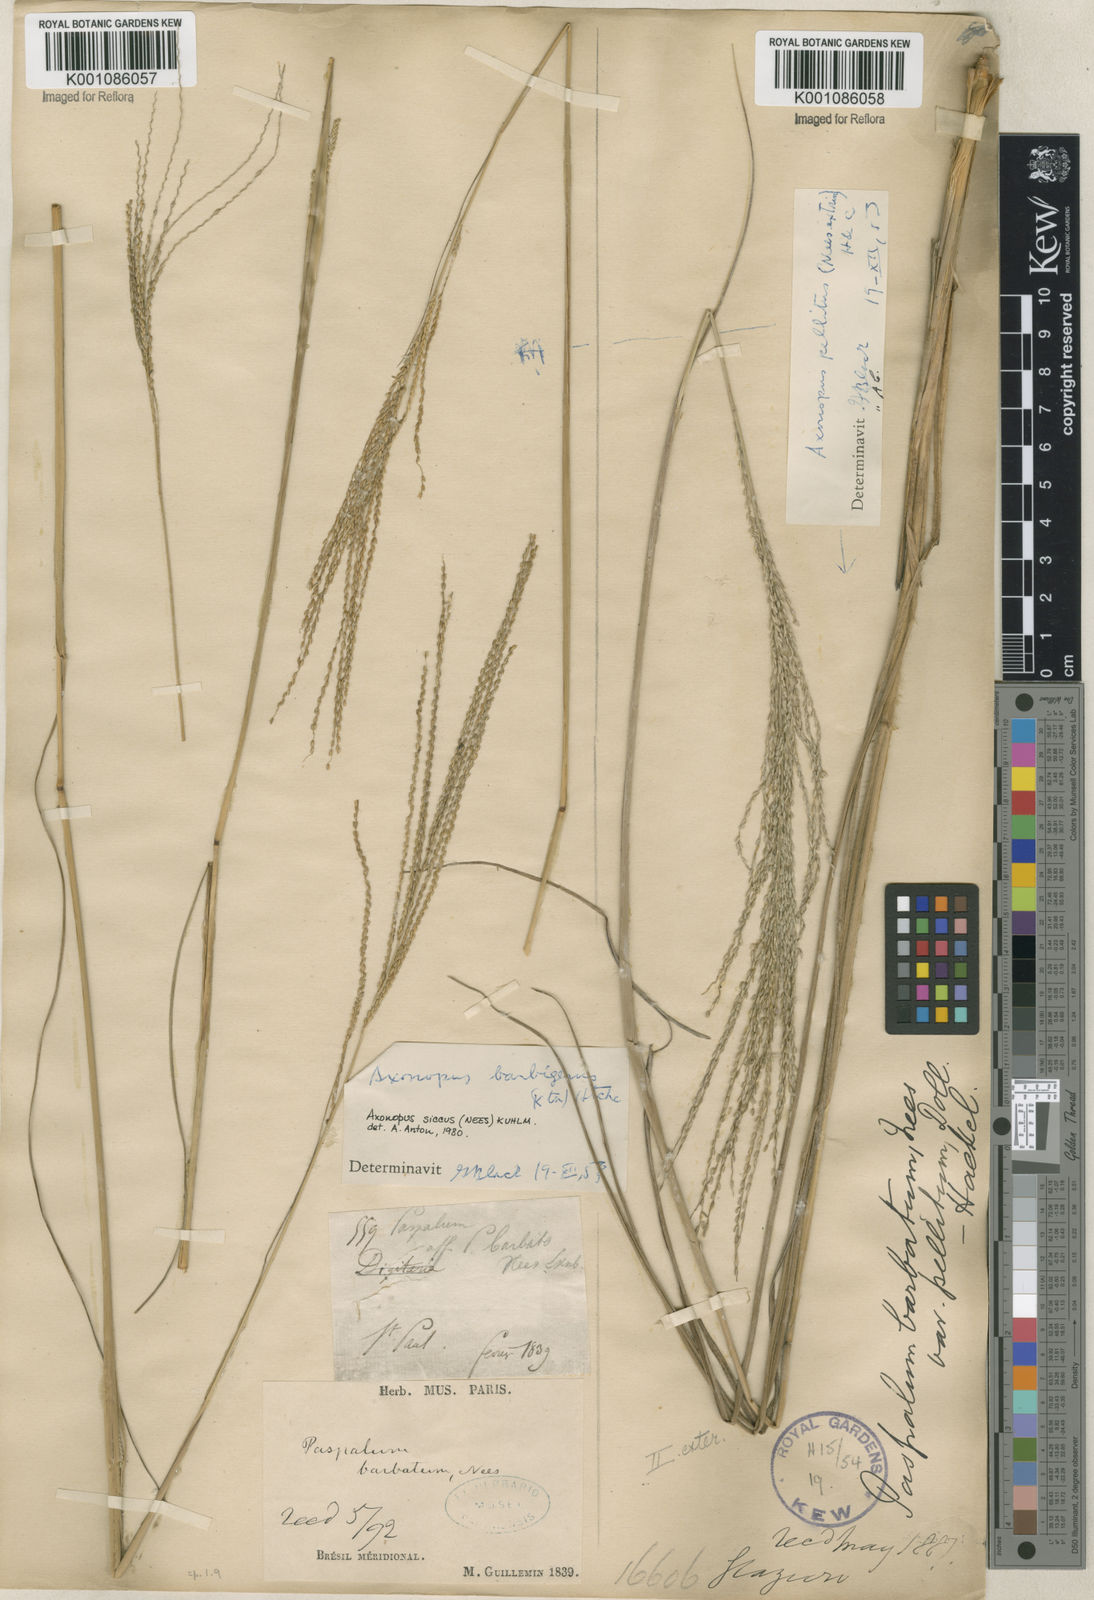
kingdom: Plantae
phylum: Tracheophyta
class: Liliopsida
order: Poales
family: Poaceae
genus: Axonopus
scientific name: Axonopus siccus
